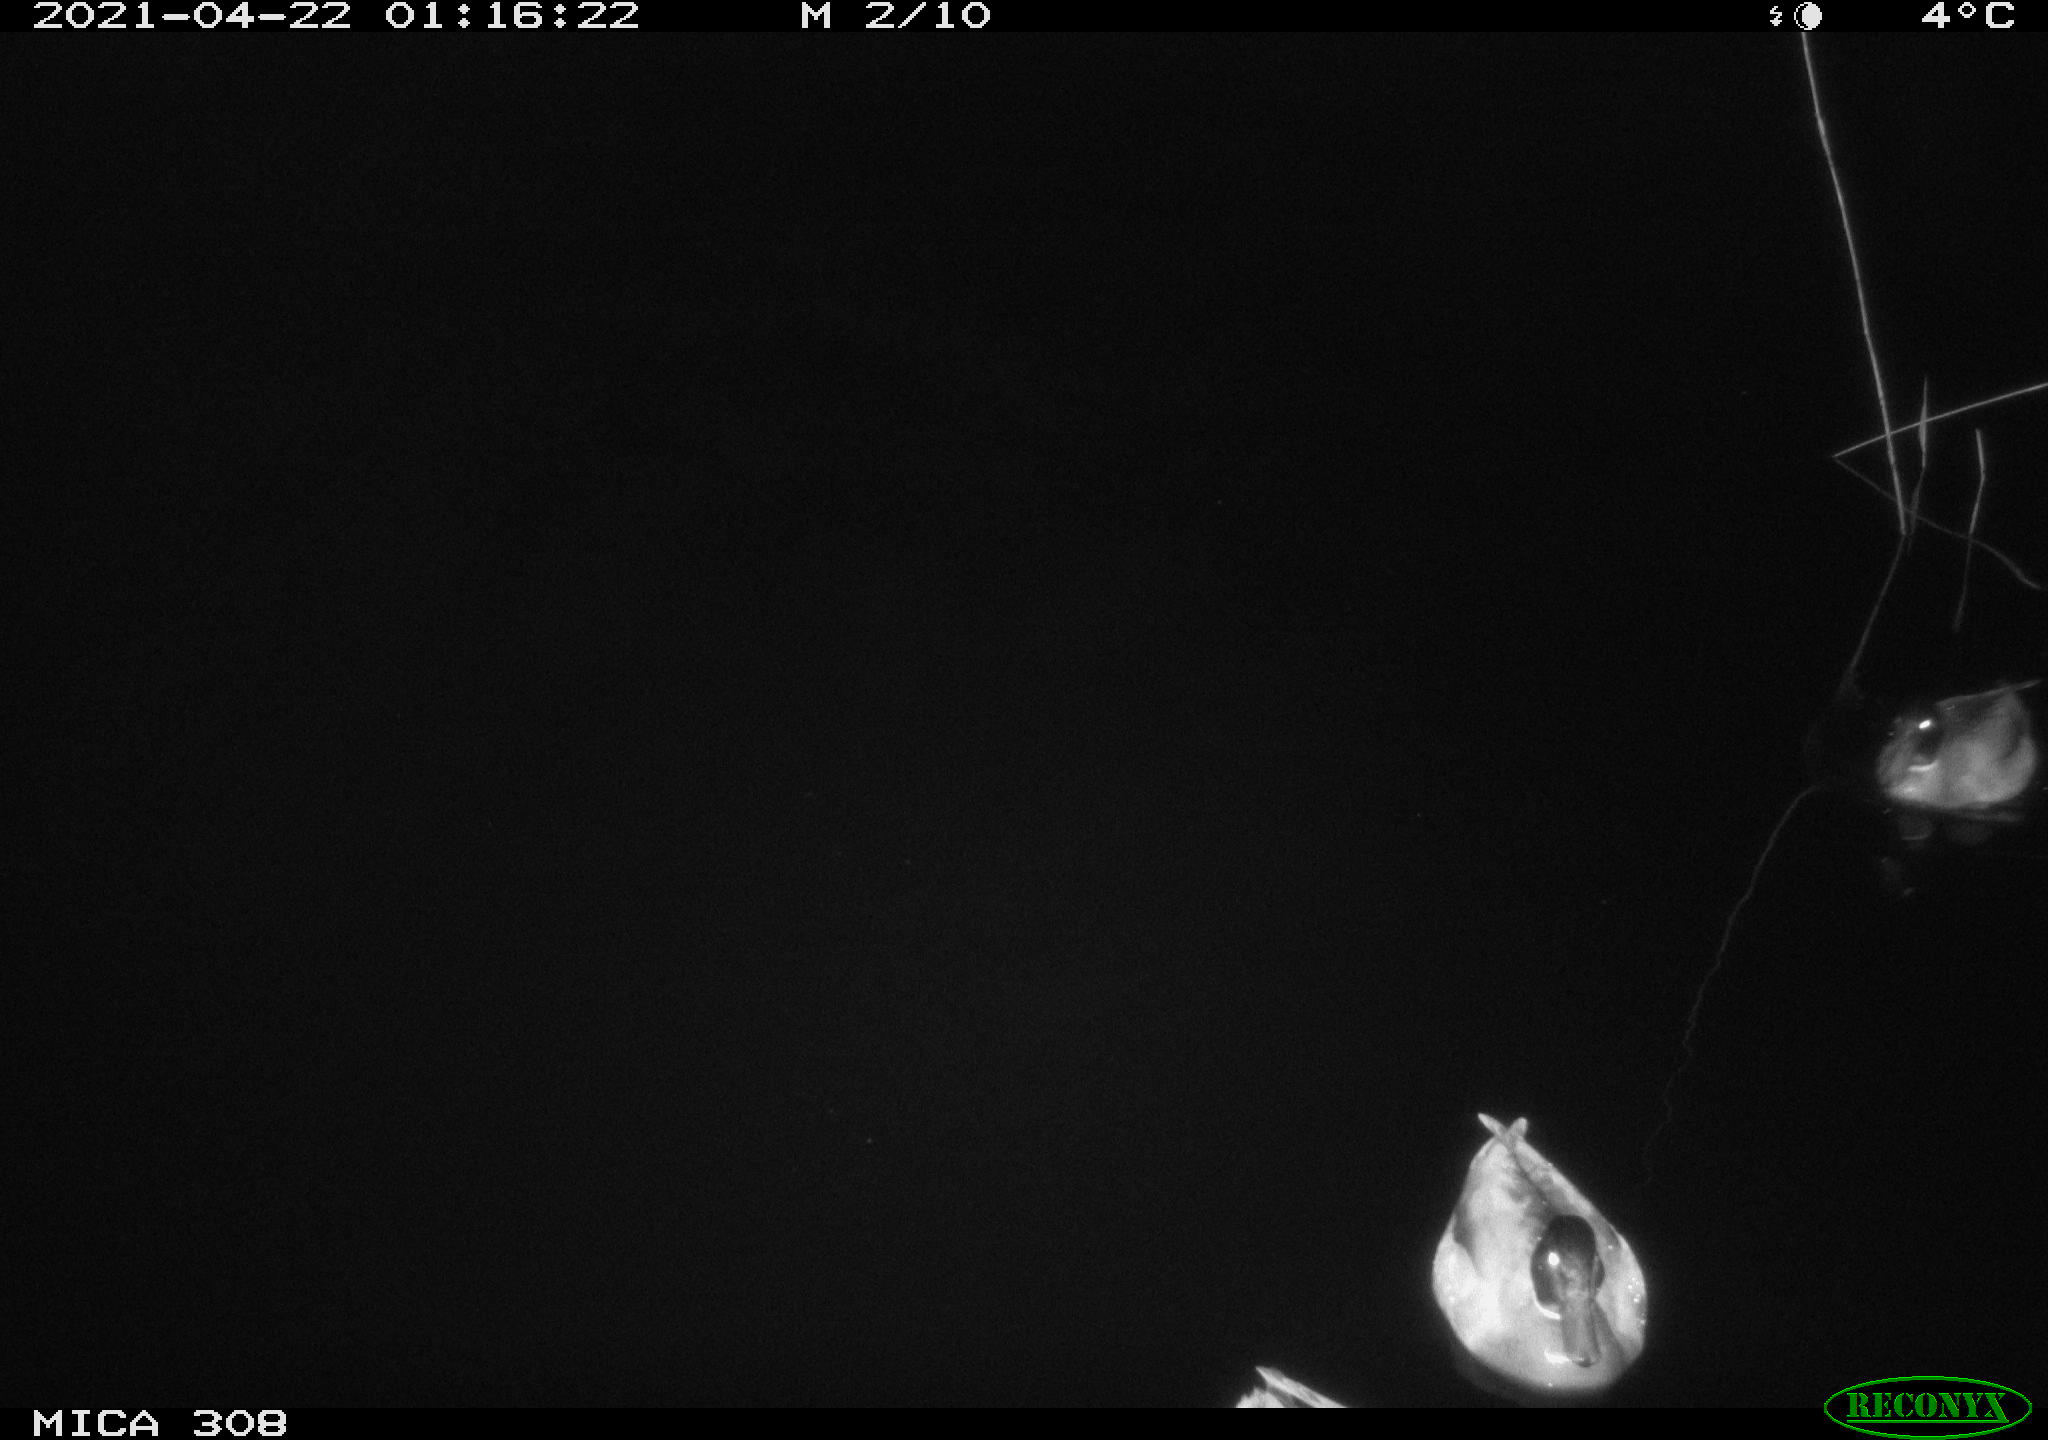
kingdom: Animalia
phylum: Chordata
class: Aves
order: Anseriformes
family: Anatidae
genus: Anas
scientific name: Anas platyrhynchos
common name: Mallard
